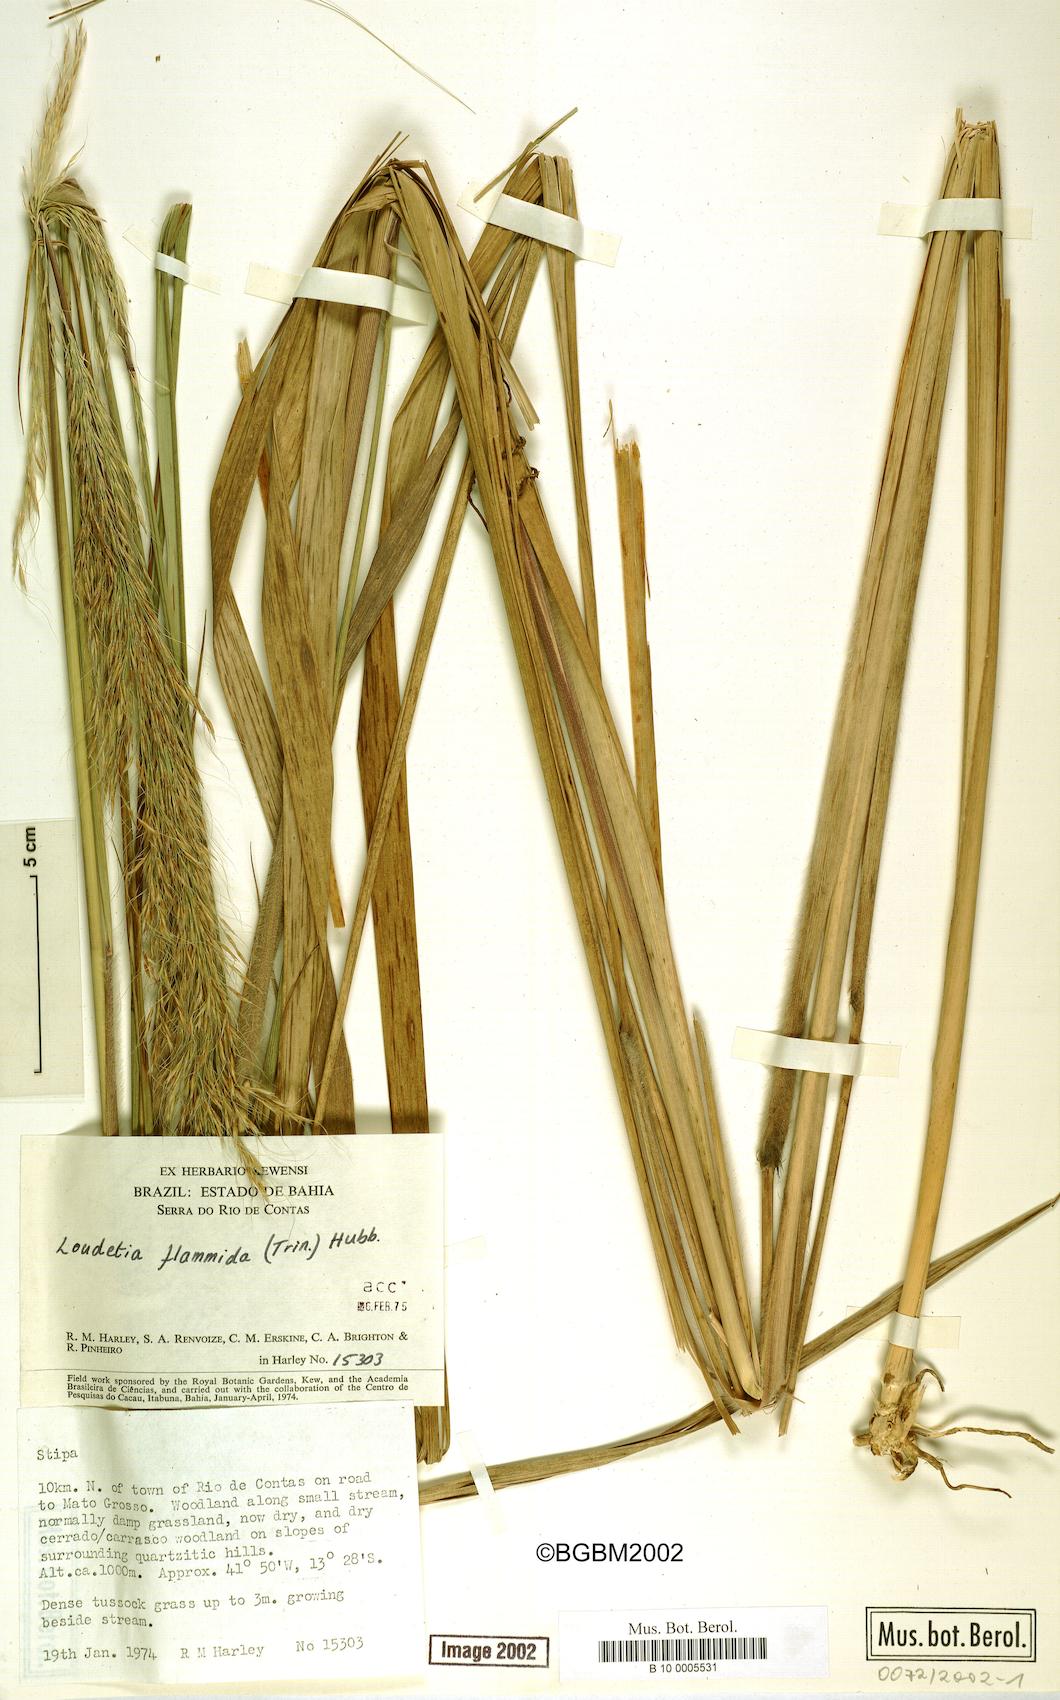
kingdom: Plantae
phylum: Tracheophyta
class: Liliopsida
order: Poales
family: Poaceae
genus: Loudetia
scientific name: Loudetia flammida
